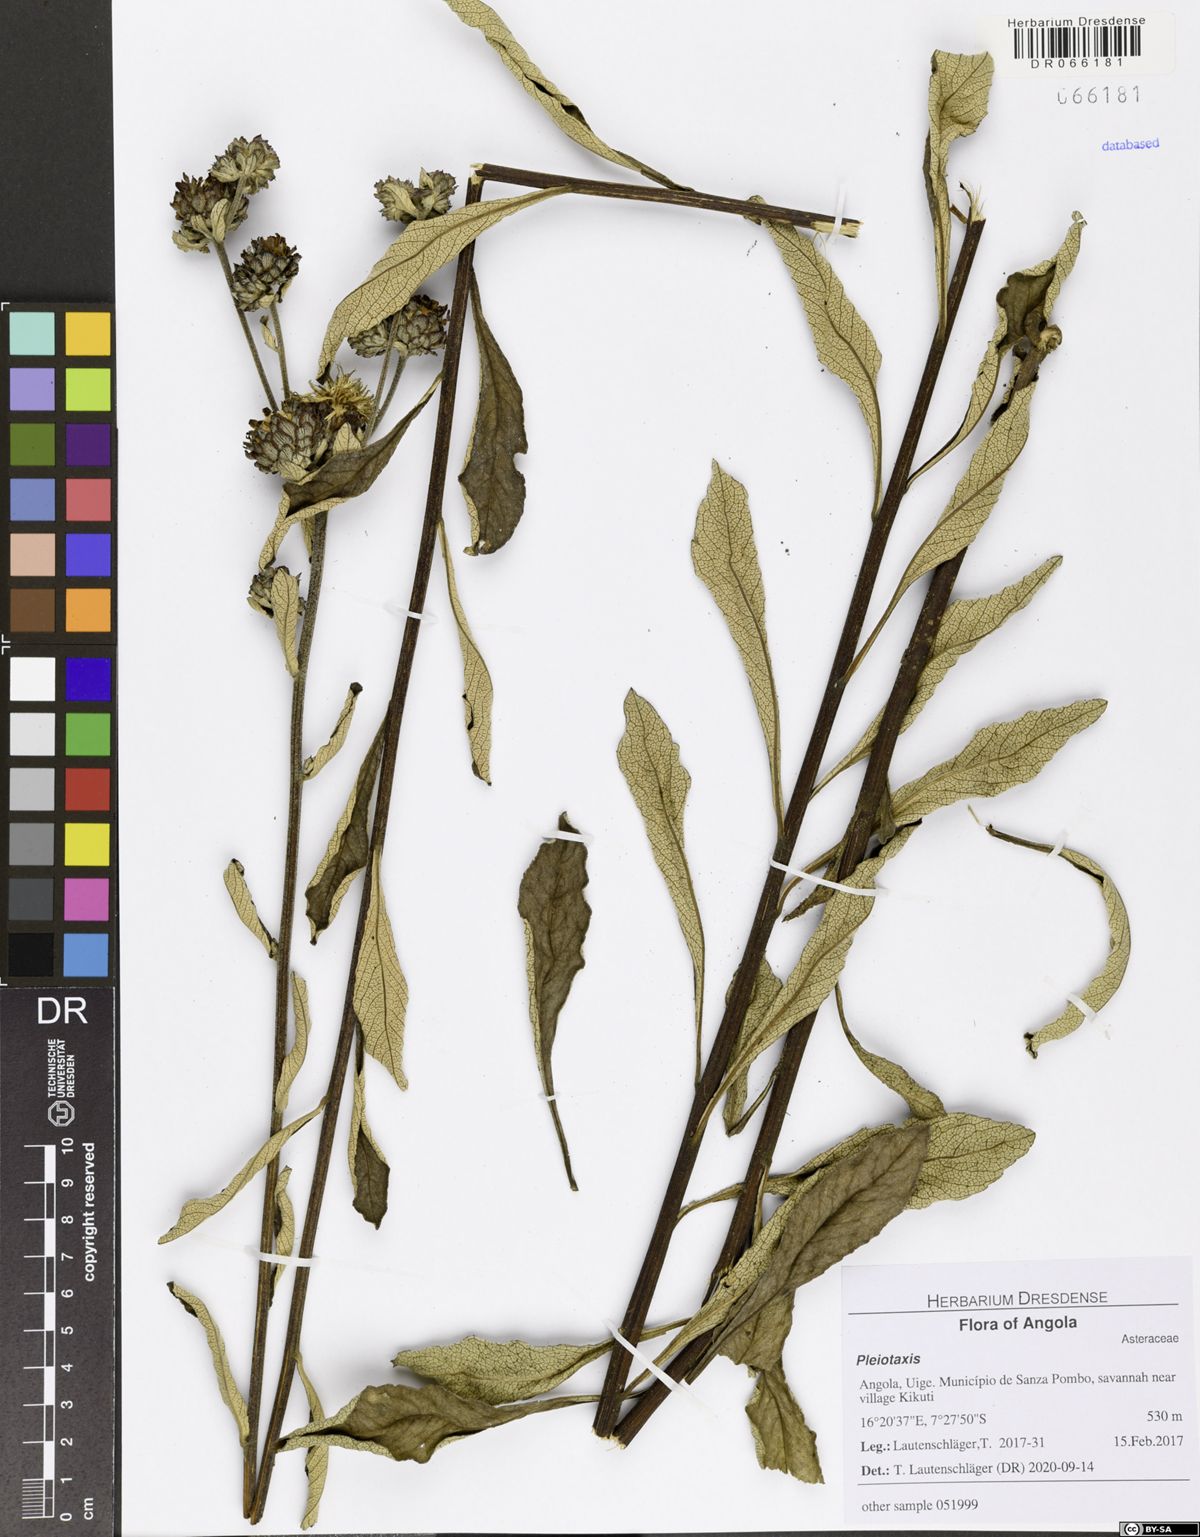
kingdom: Plantae
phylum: Tracheophyta
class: Magnoliopsida
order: Asterales
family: Asteraceae
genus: Baccharoides
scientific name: Baccharoides guineensis
